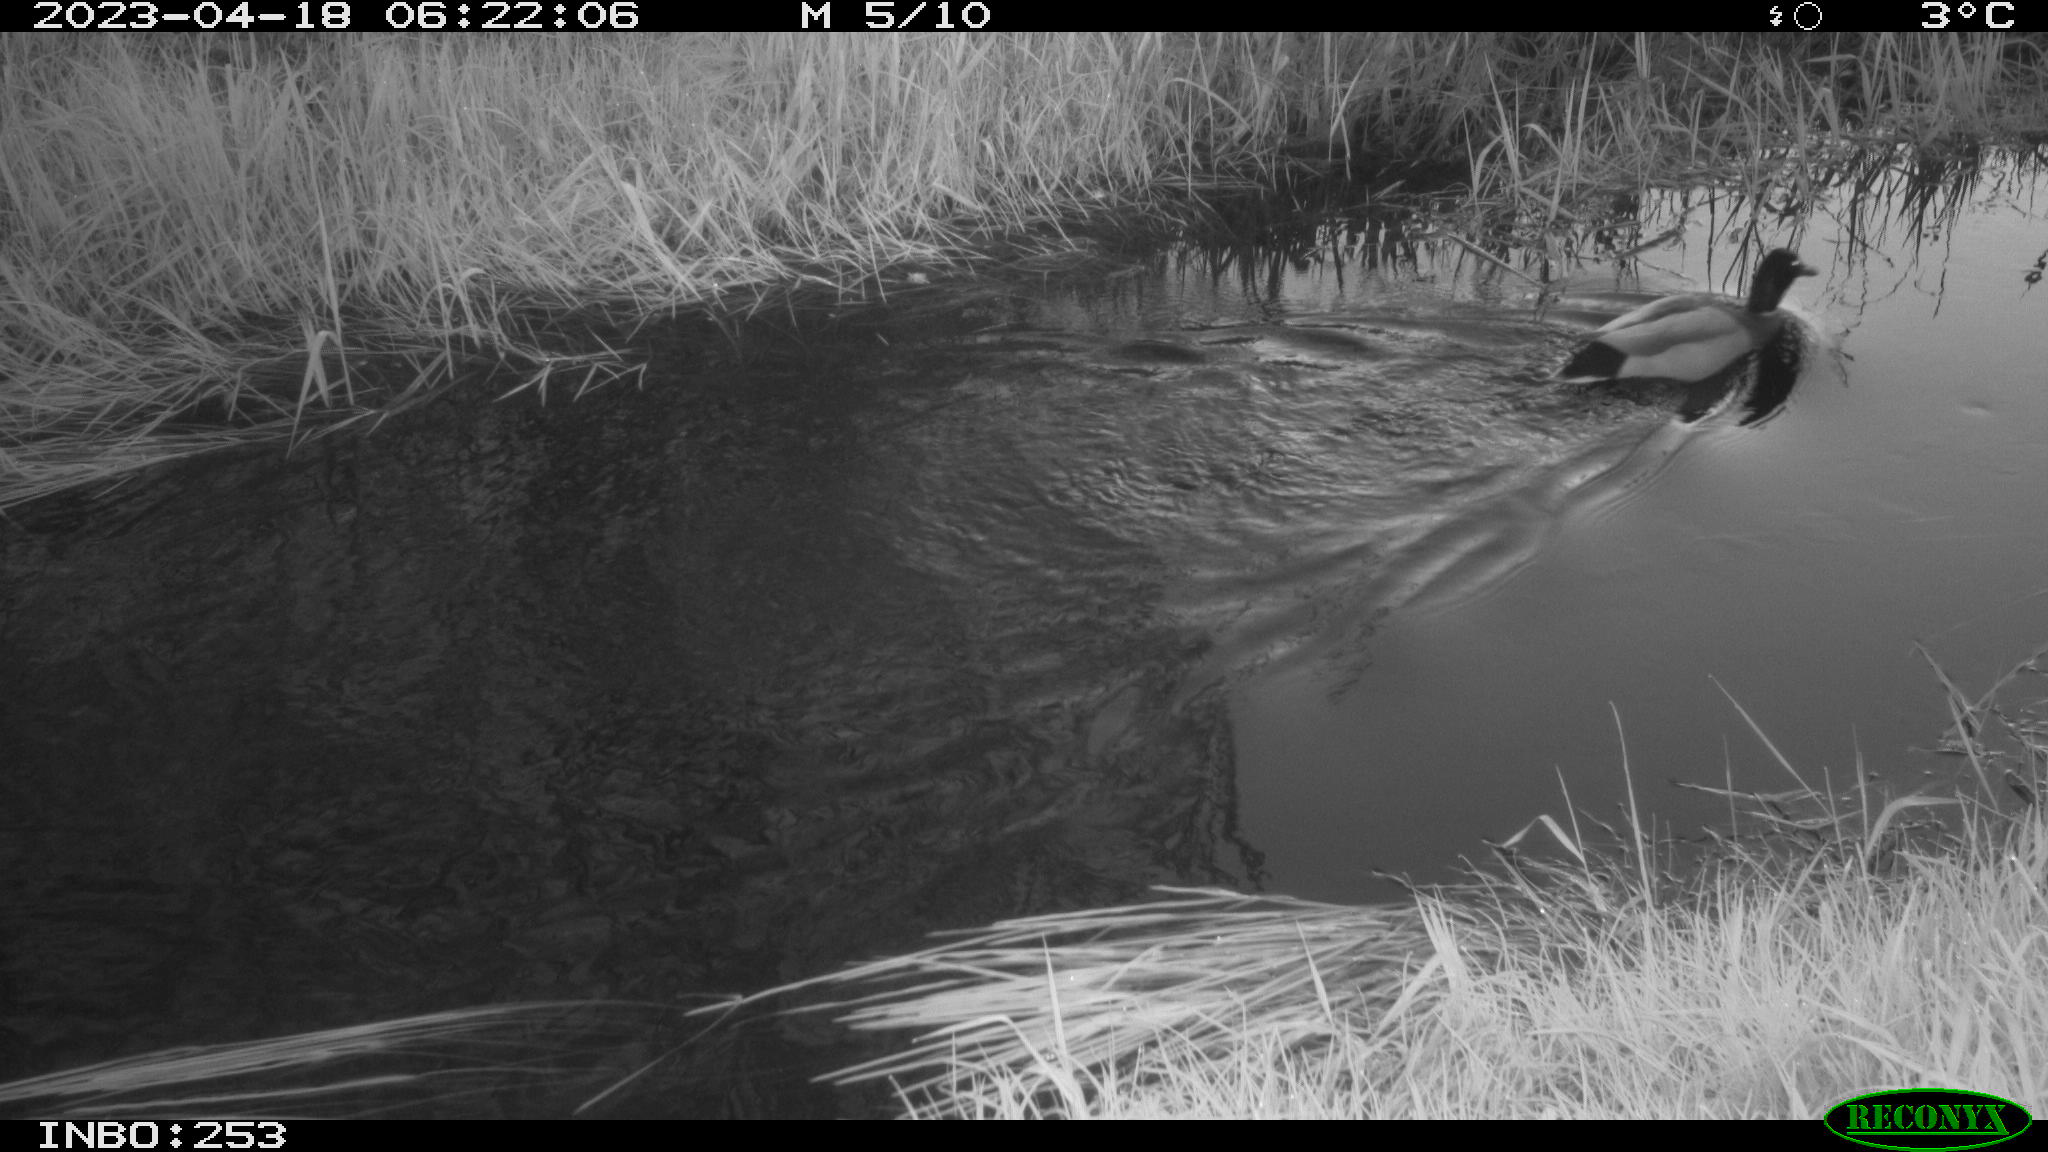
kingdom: Animalia
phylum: Chordata
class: Aves
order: Anseriformes
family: Anatidae
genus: Anas
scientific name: Anas
